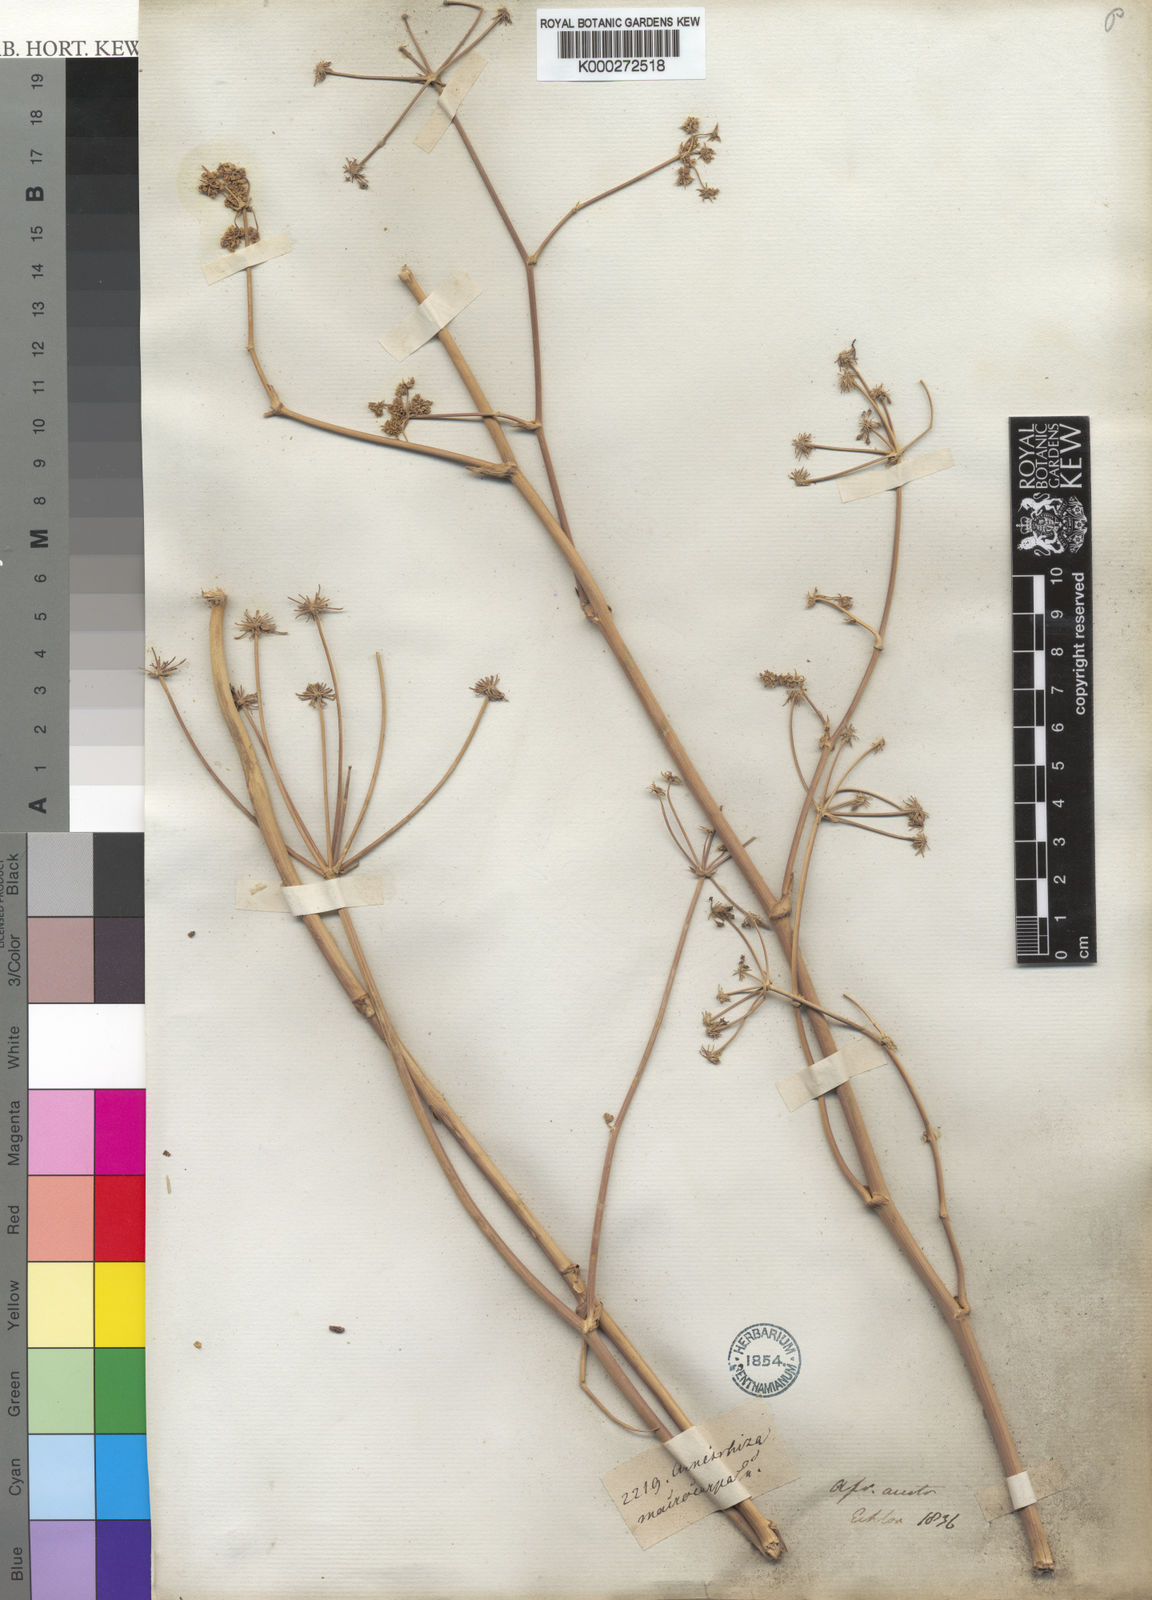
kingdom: Plantae
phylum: Tracheophyta
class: Magnoliopsida
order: Apiales
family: Apiaceae
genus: Annesorhiza
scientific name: Annesorhiza macrocarpa
